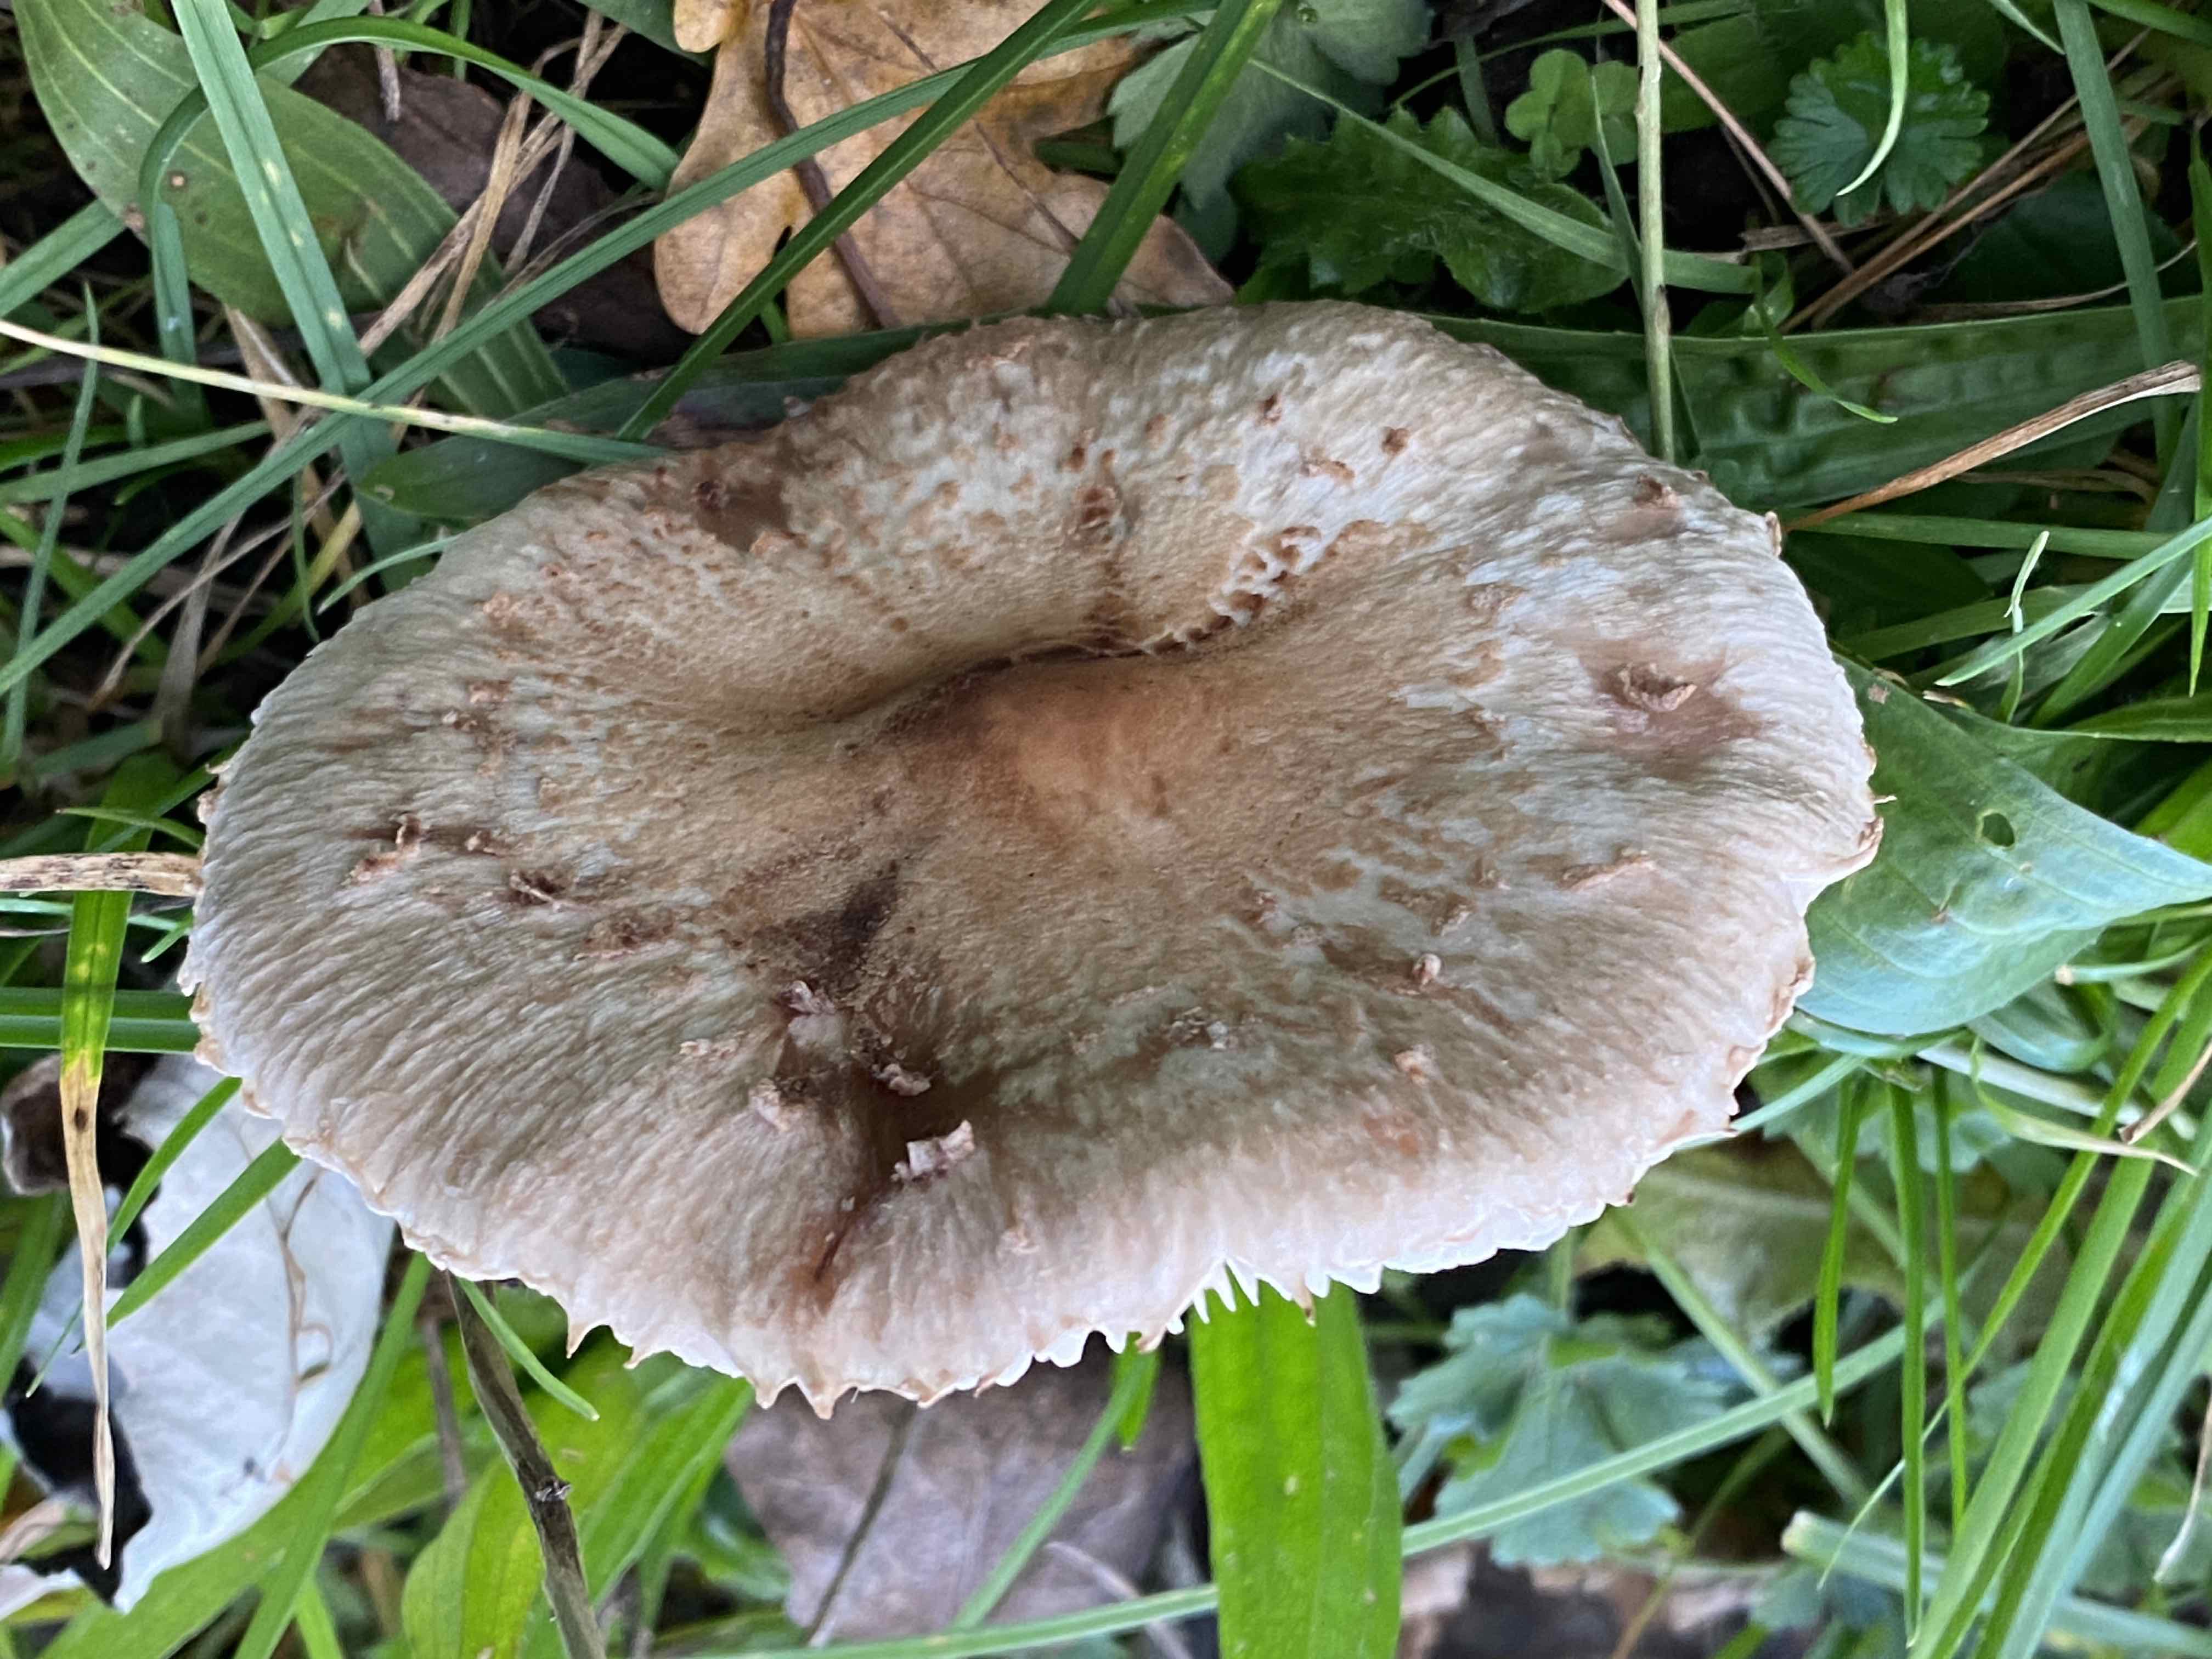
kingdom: Fungi
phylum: Basidiomycota
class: Agaricomycetes
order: Agaricales
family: Agaricaceae
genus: Macrolepiota
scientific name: Macrolepiota
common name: kæmpeparasolhat
